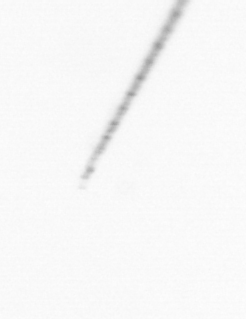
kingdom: Chromista
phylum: Ochrophyta
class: Bacillariophyceae
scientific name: Bacillariophyceae
